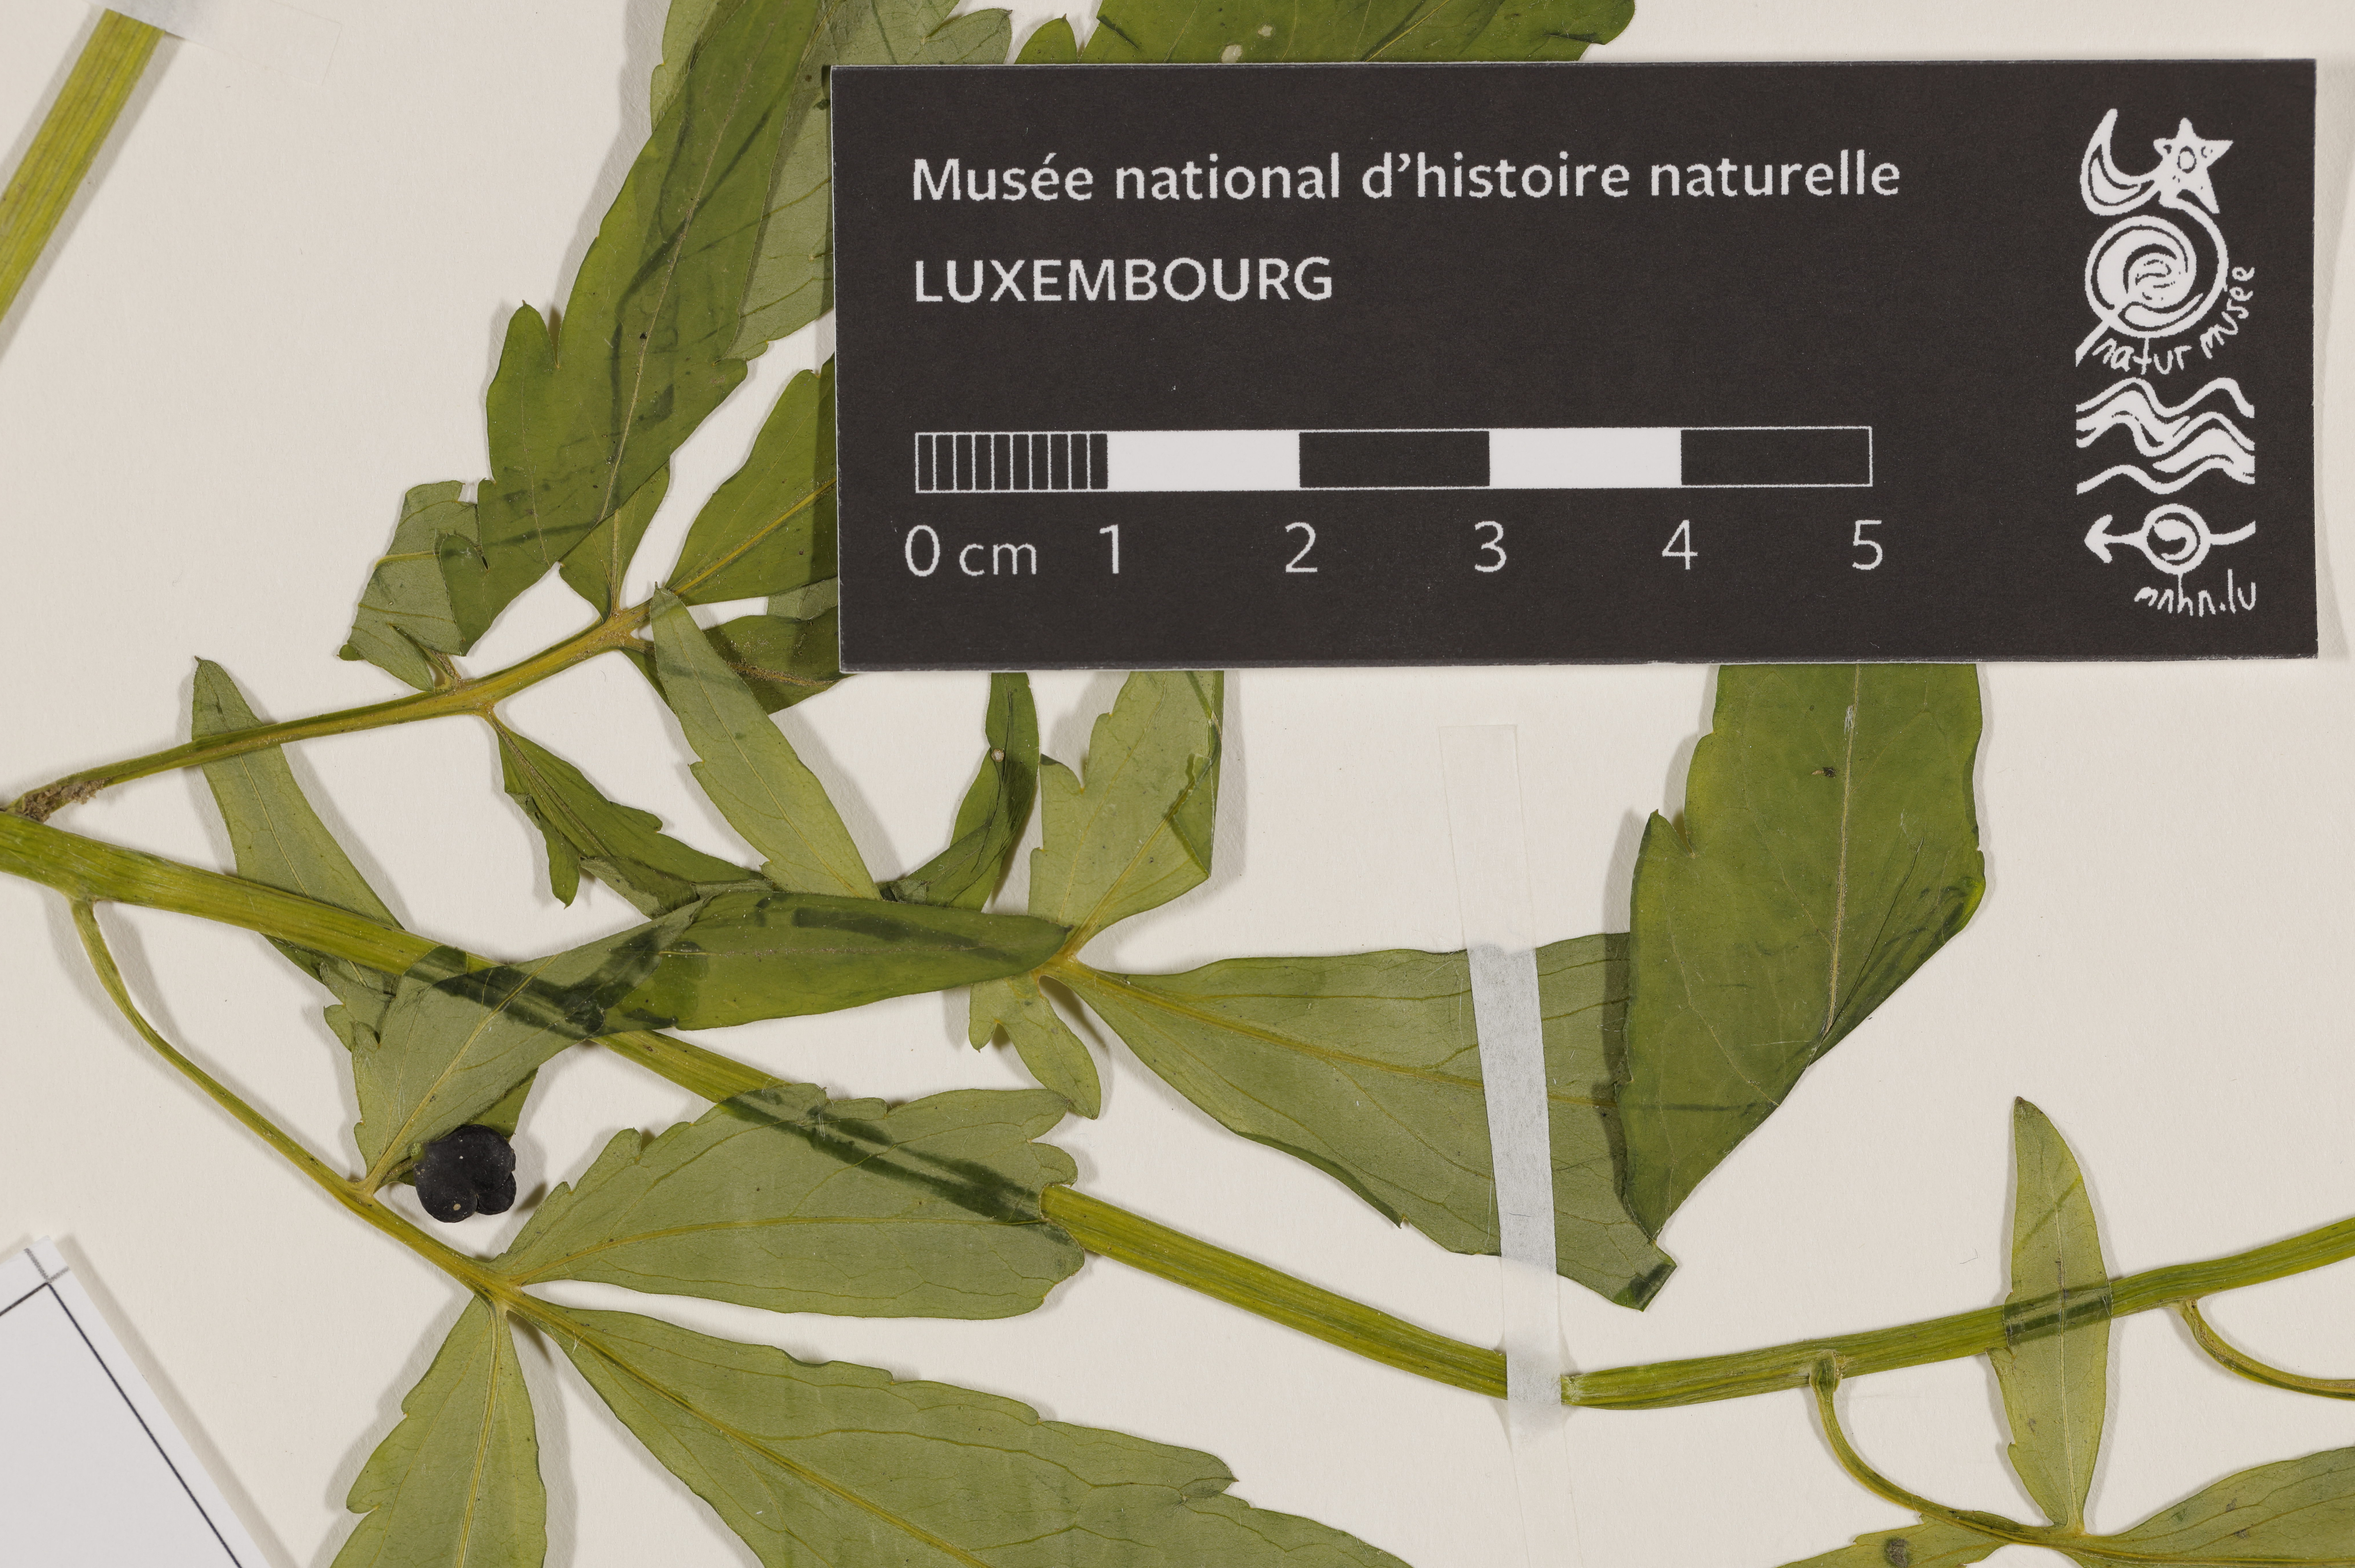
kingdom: Plantae
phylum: Tracheophyta
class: Magnoliopsida
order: Brassicales
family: Brassicaceae
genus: Cardamine
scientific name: Cardamine bulbifera
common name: Coralroot bittercress
